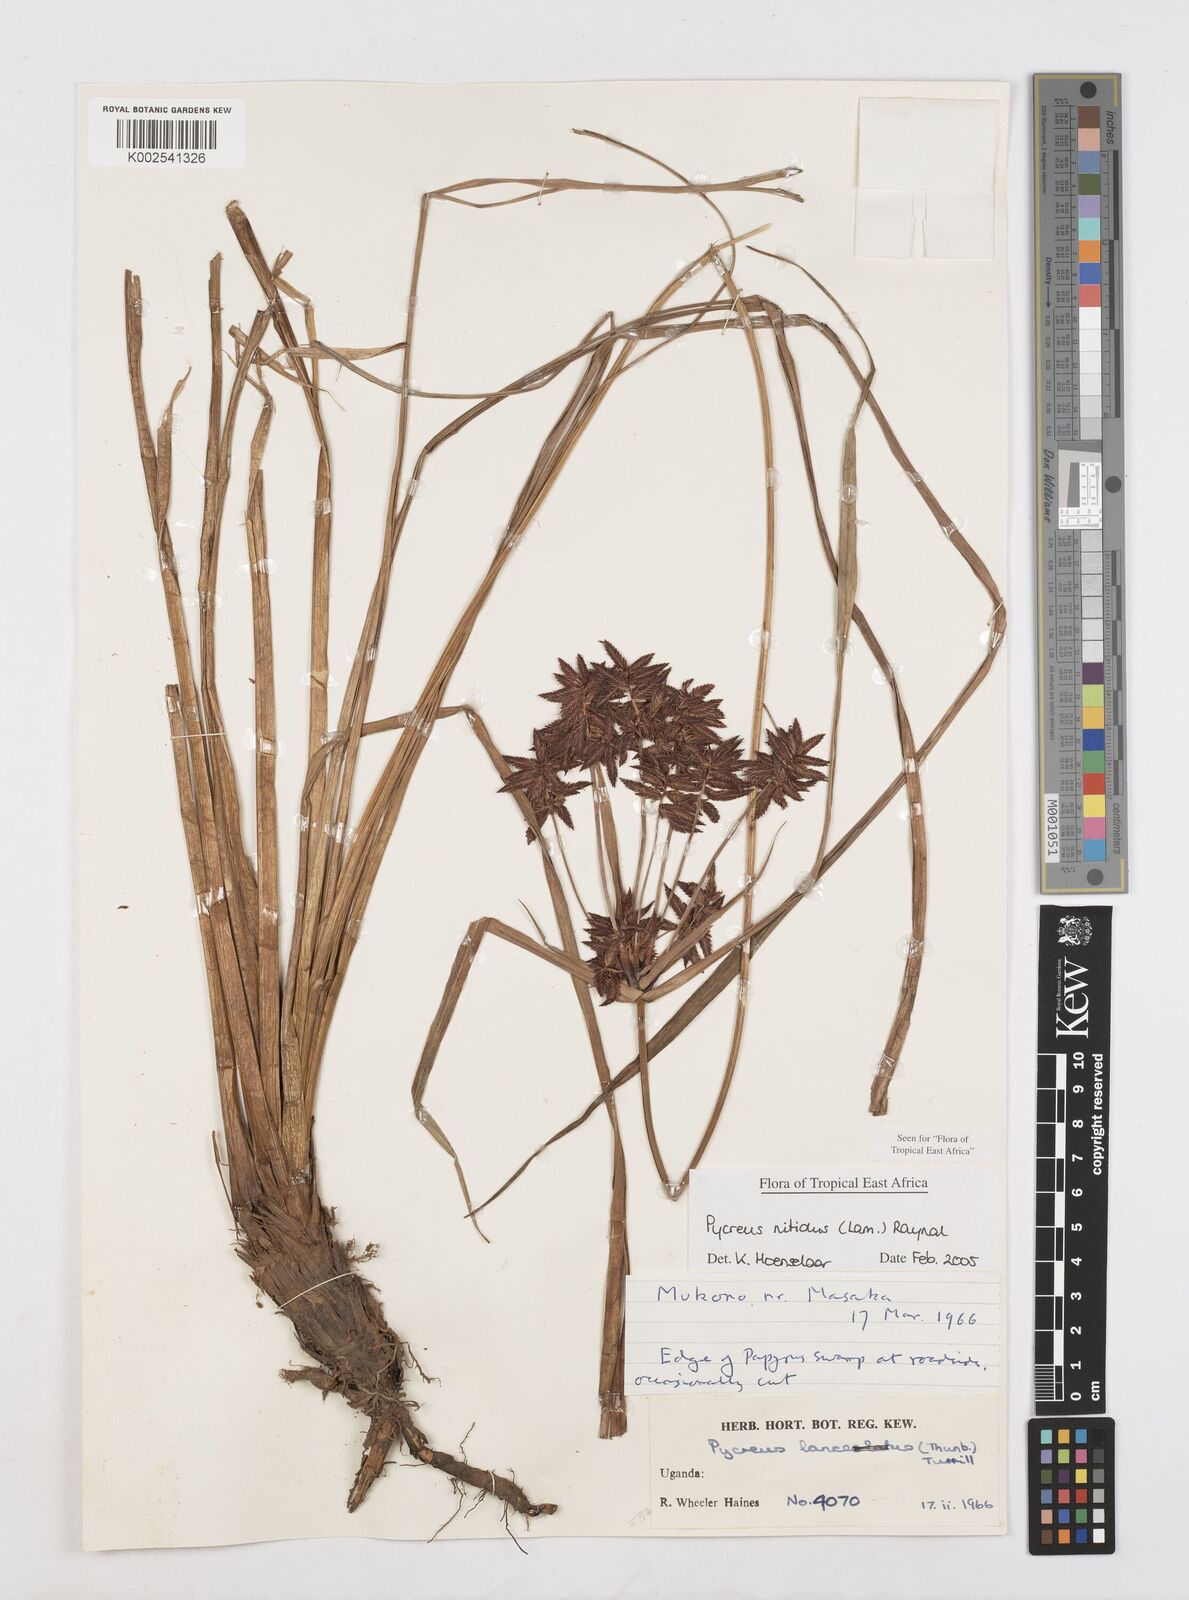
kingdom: Plantae
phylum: Tracheophyta
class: Liliopsida
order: Poales
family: Cyperaceae
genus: Cyperus
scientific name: Cyperus nitidus
